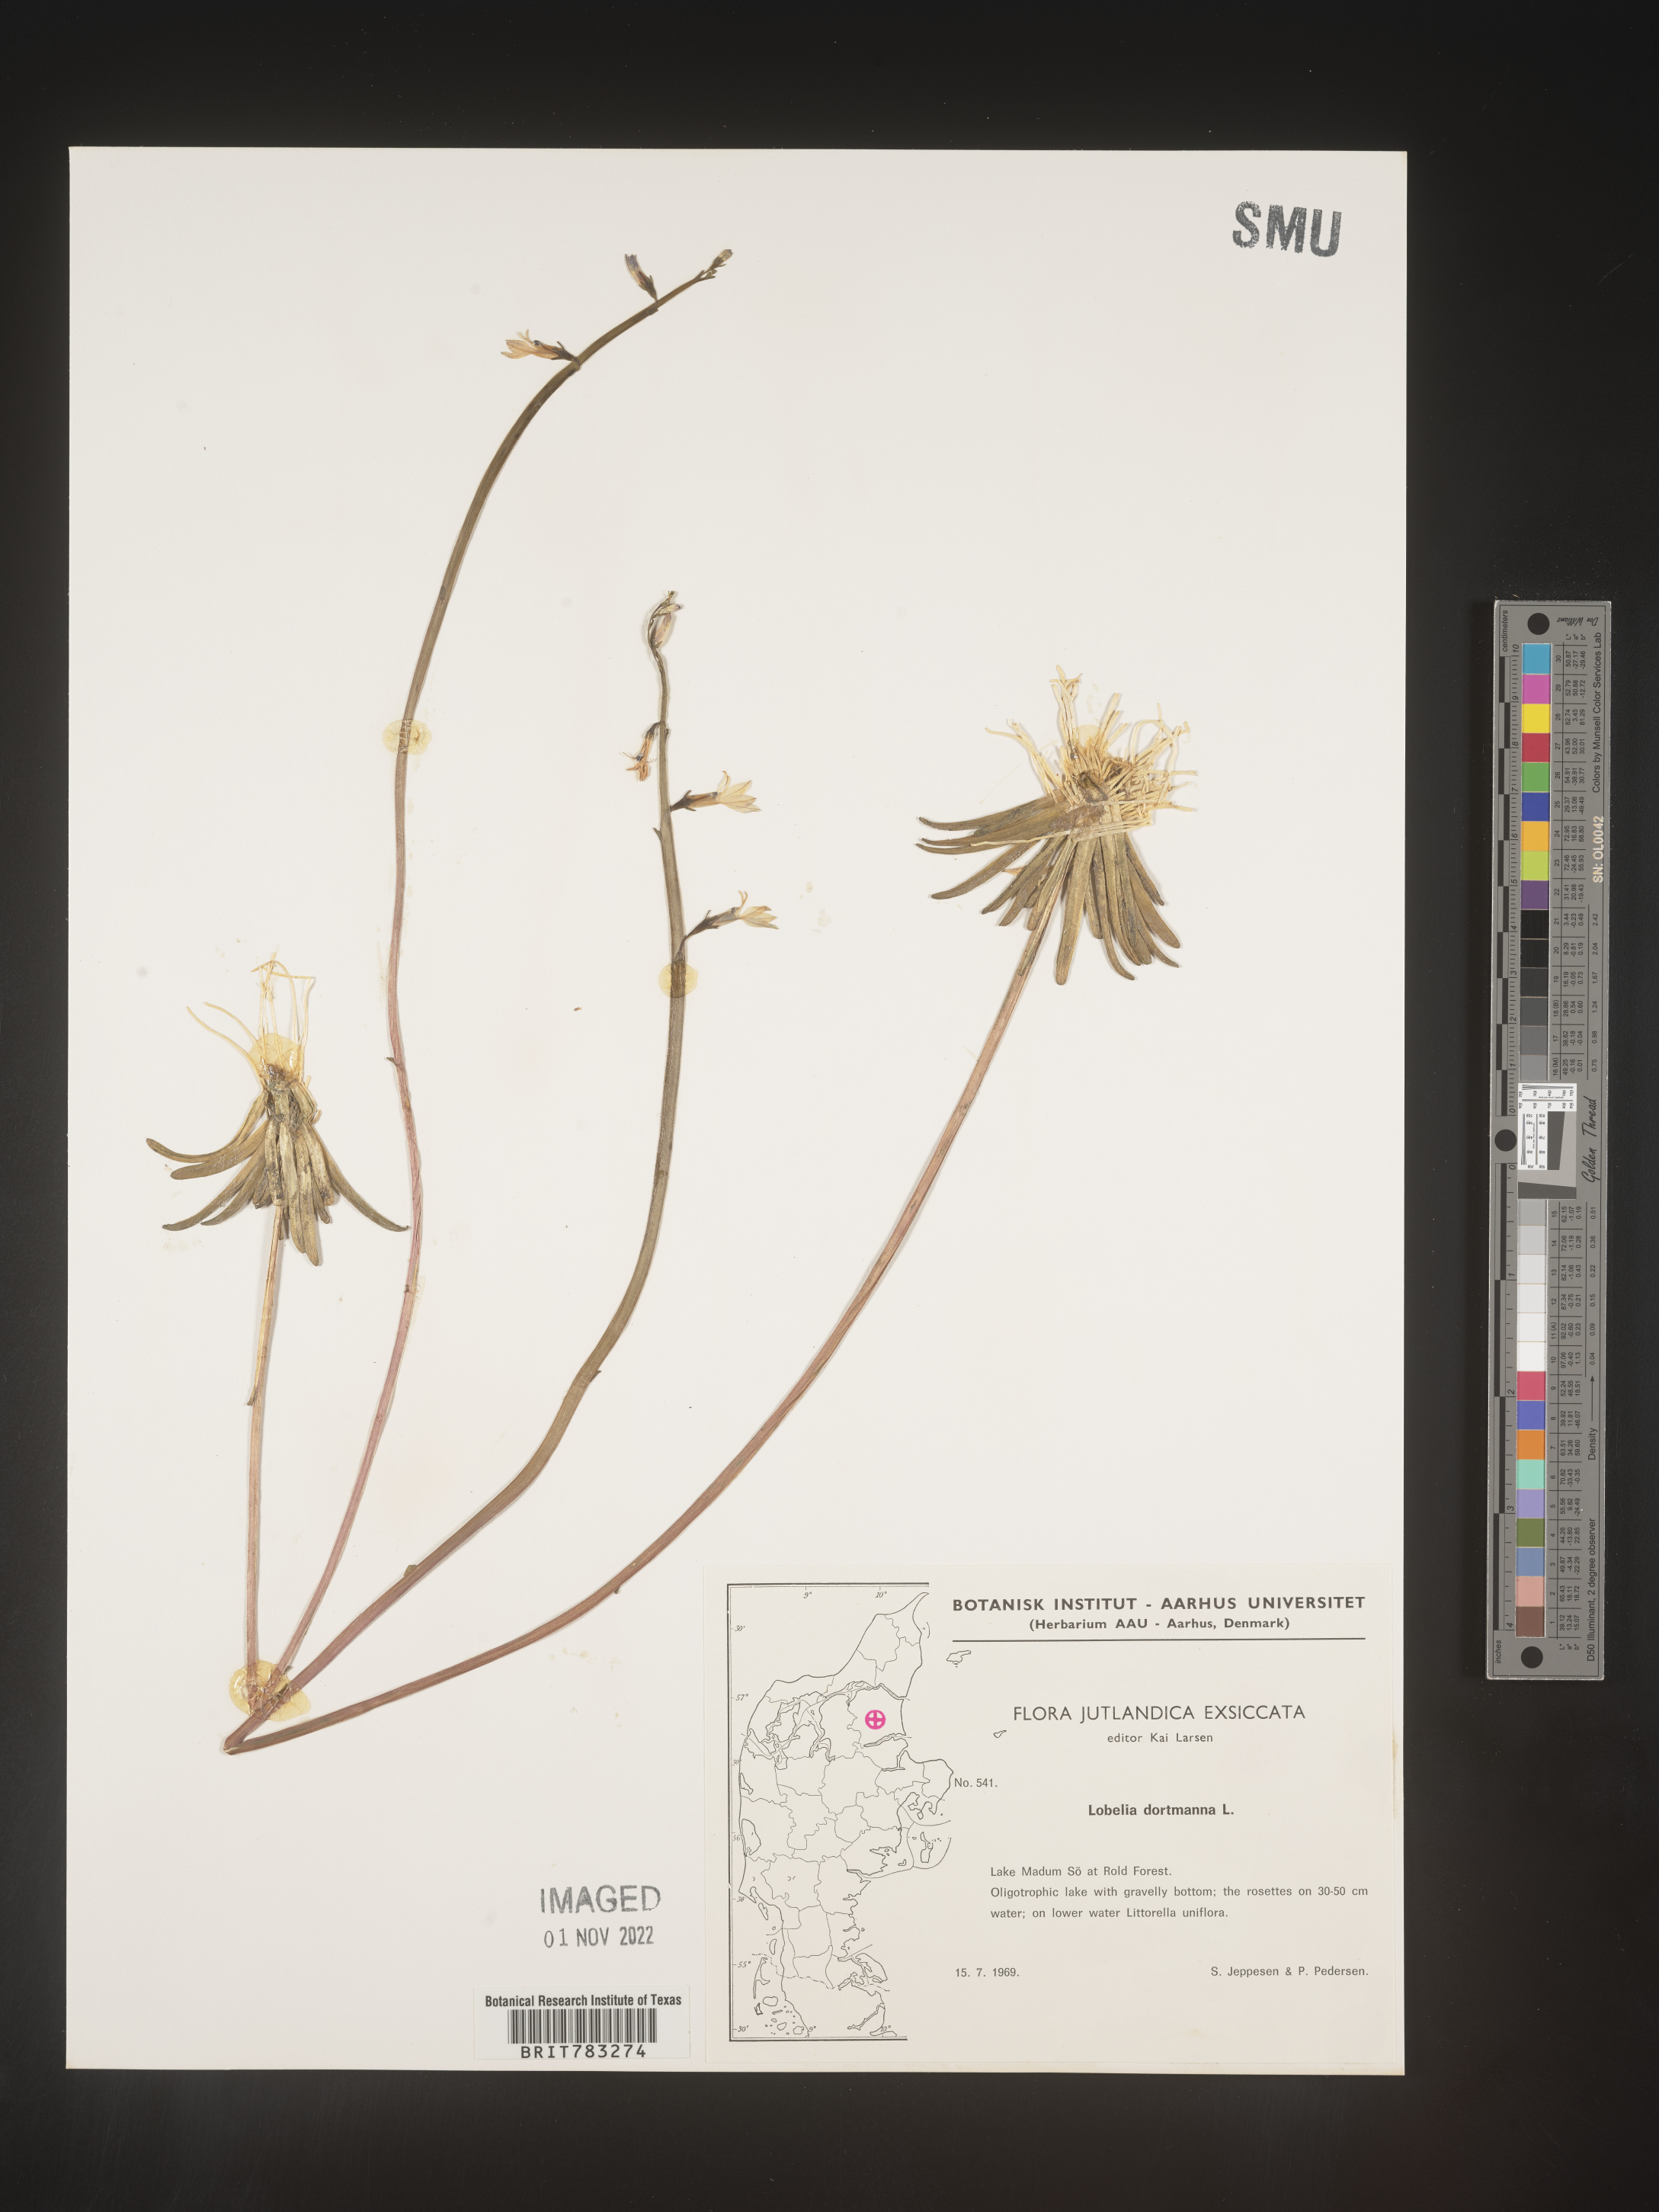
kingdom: Plantae
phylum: Tracheophyta
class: Magnoliopsida
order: Asterales
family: Campanulaceae
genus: Lobelia
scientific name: Lobelia
